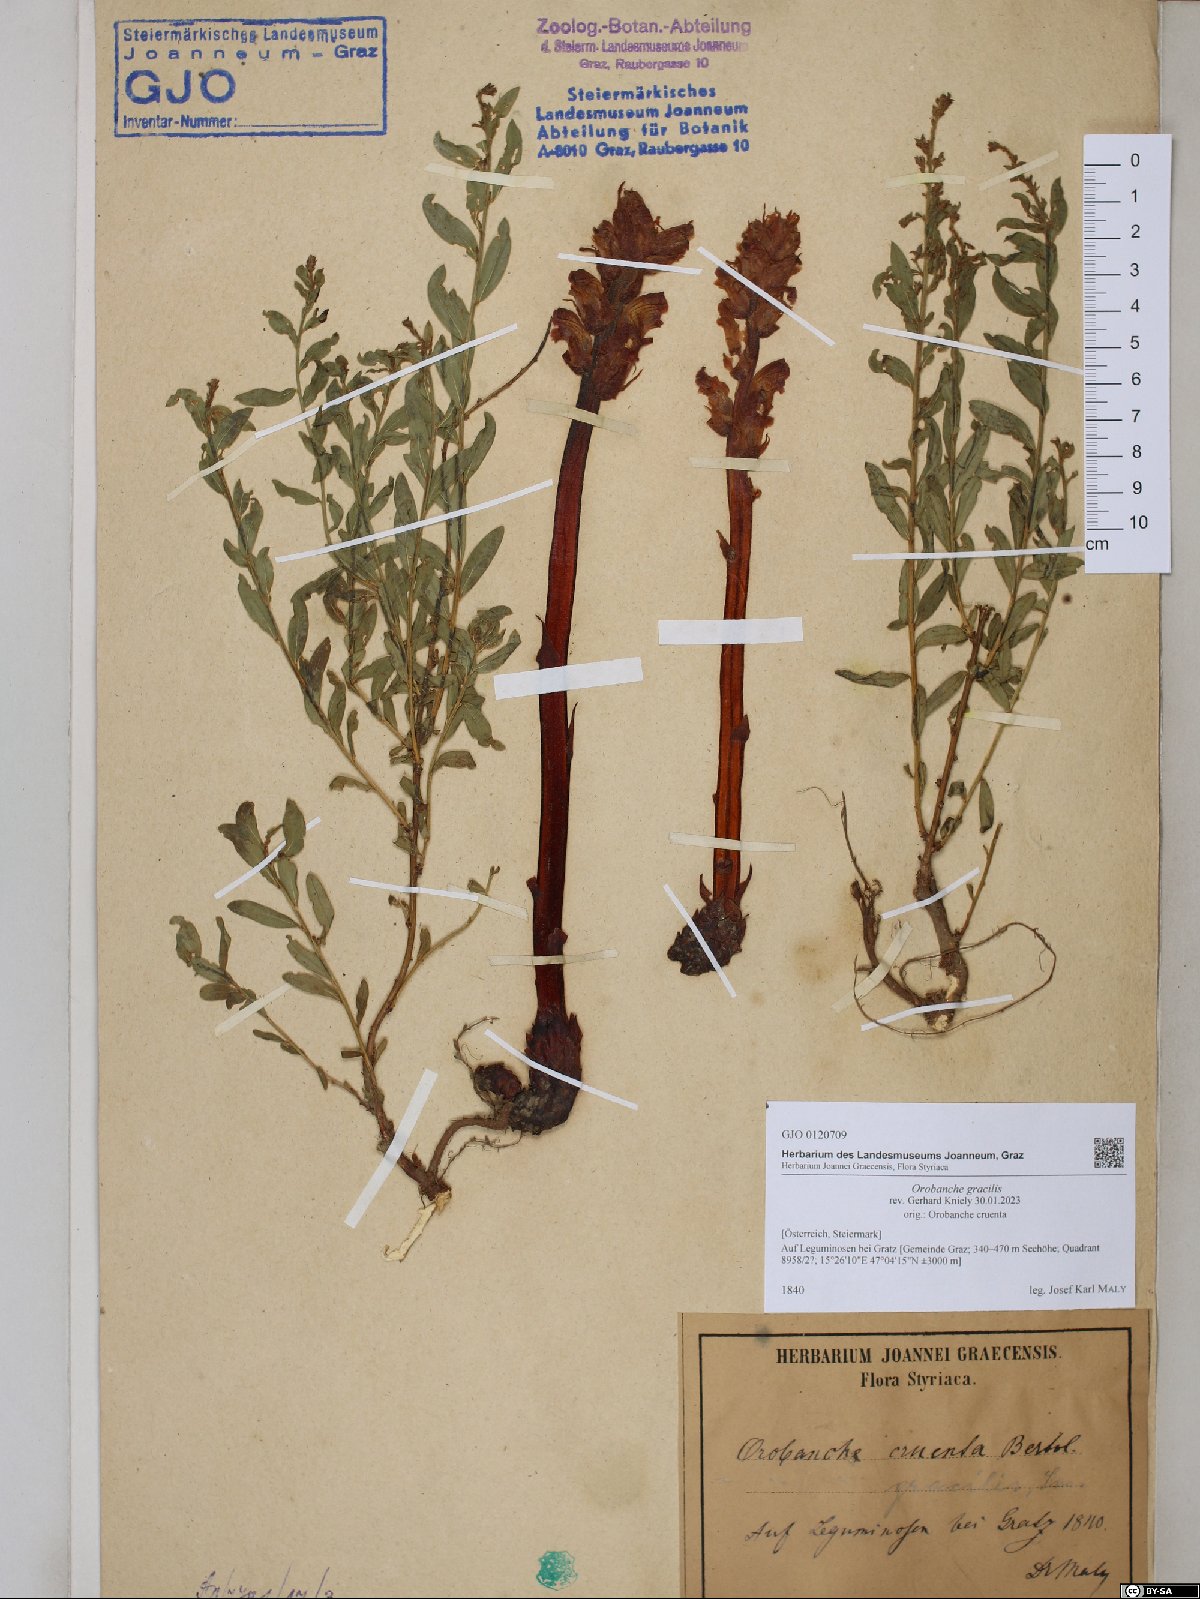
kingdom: Plantae
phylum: Tracheophyta
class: Magnoliopsida
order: Lamiales
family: Orobanchaceae
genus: Orobanche
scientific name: Orobanche gracilis
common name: Slender broomrape
